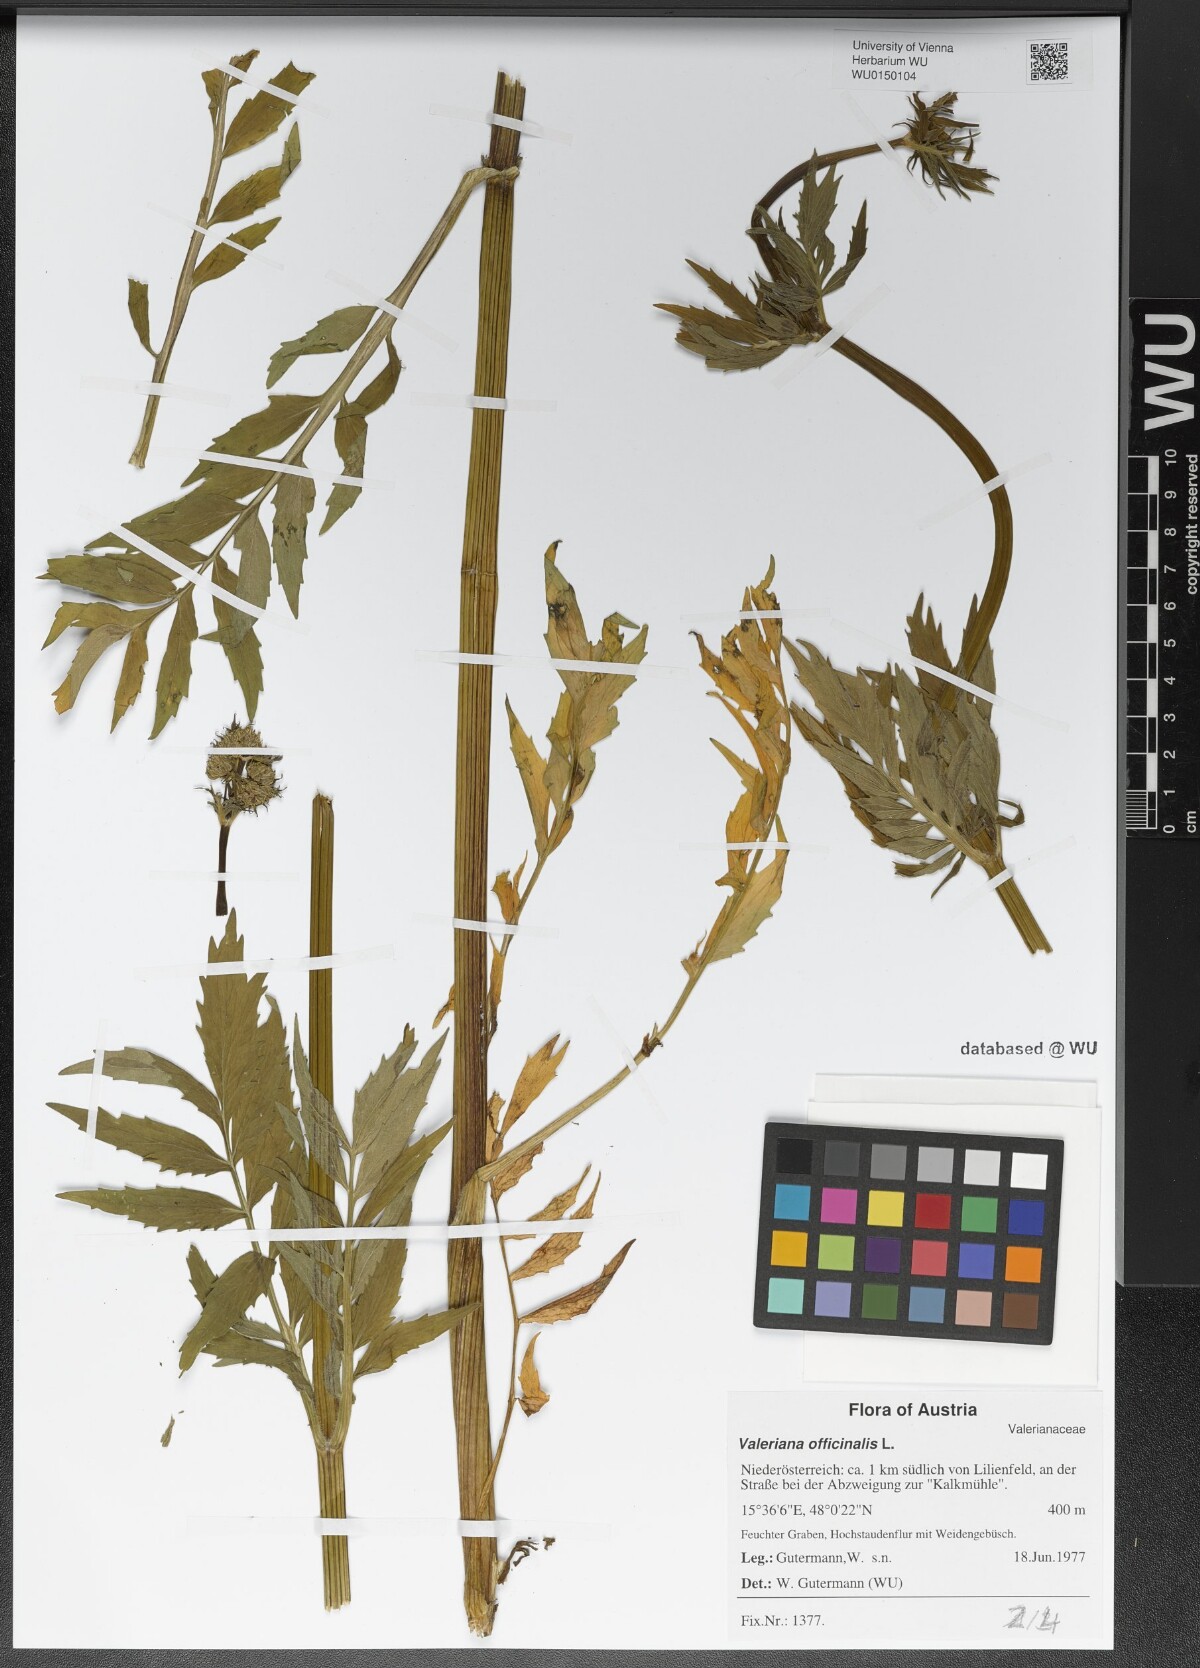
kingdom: Plantae
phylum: Tracheophyta
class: Magnoliopsida
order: Dipsacales
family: Caprifoliaceae
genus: Valeriana
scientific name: Valeriana officinalis
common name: Common valerian
